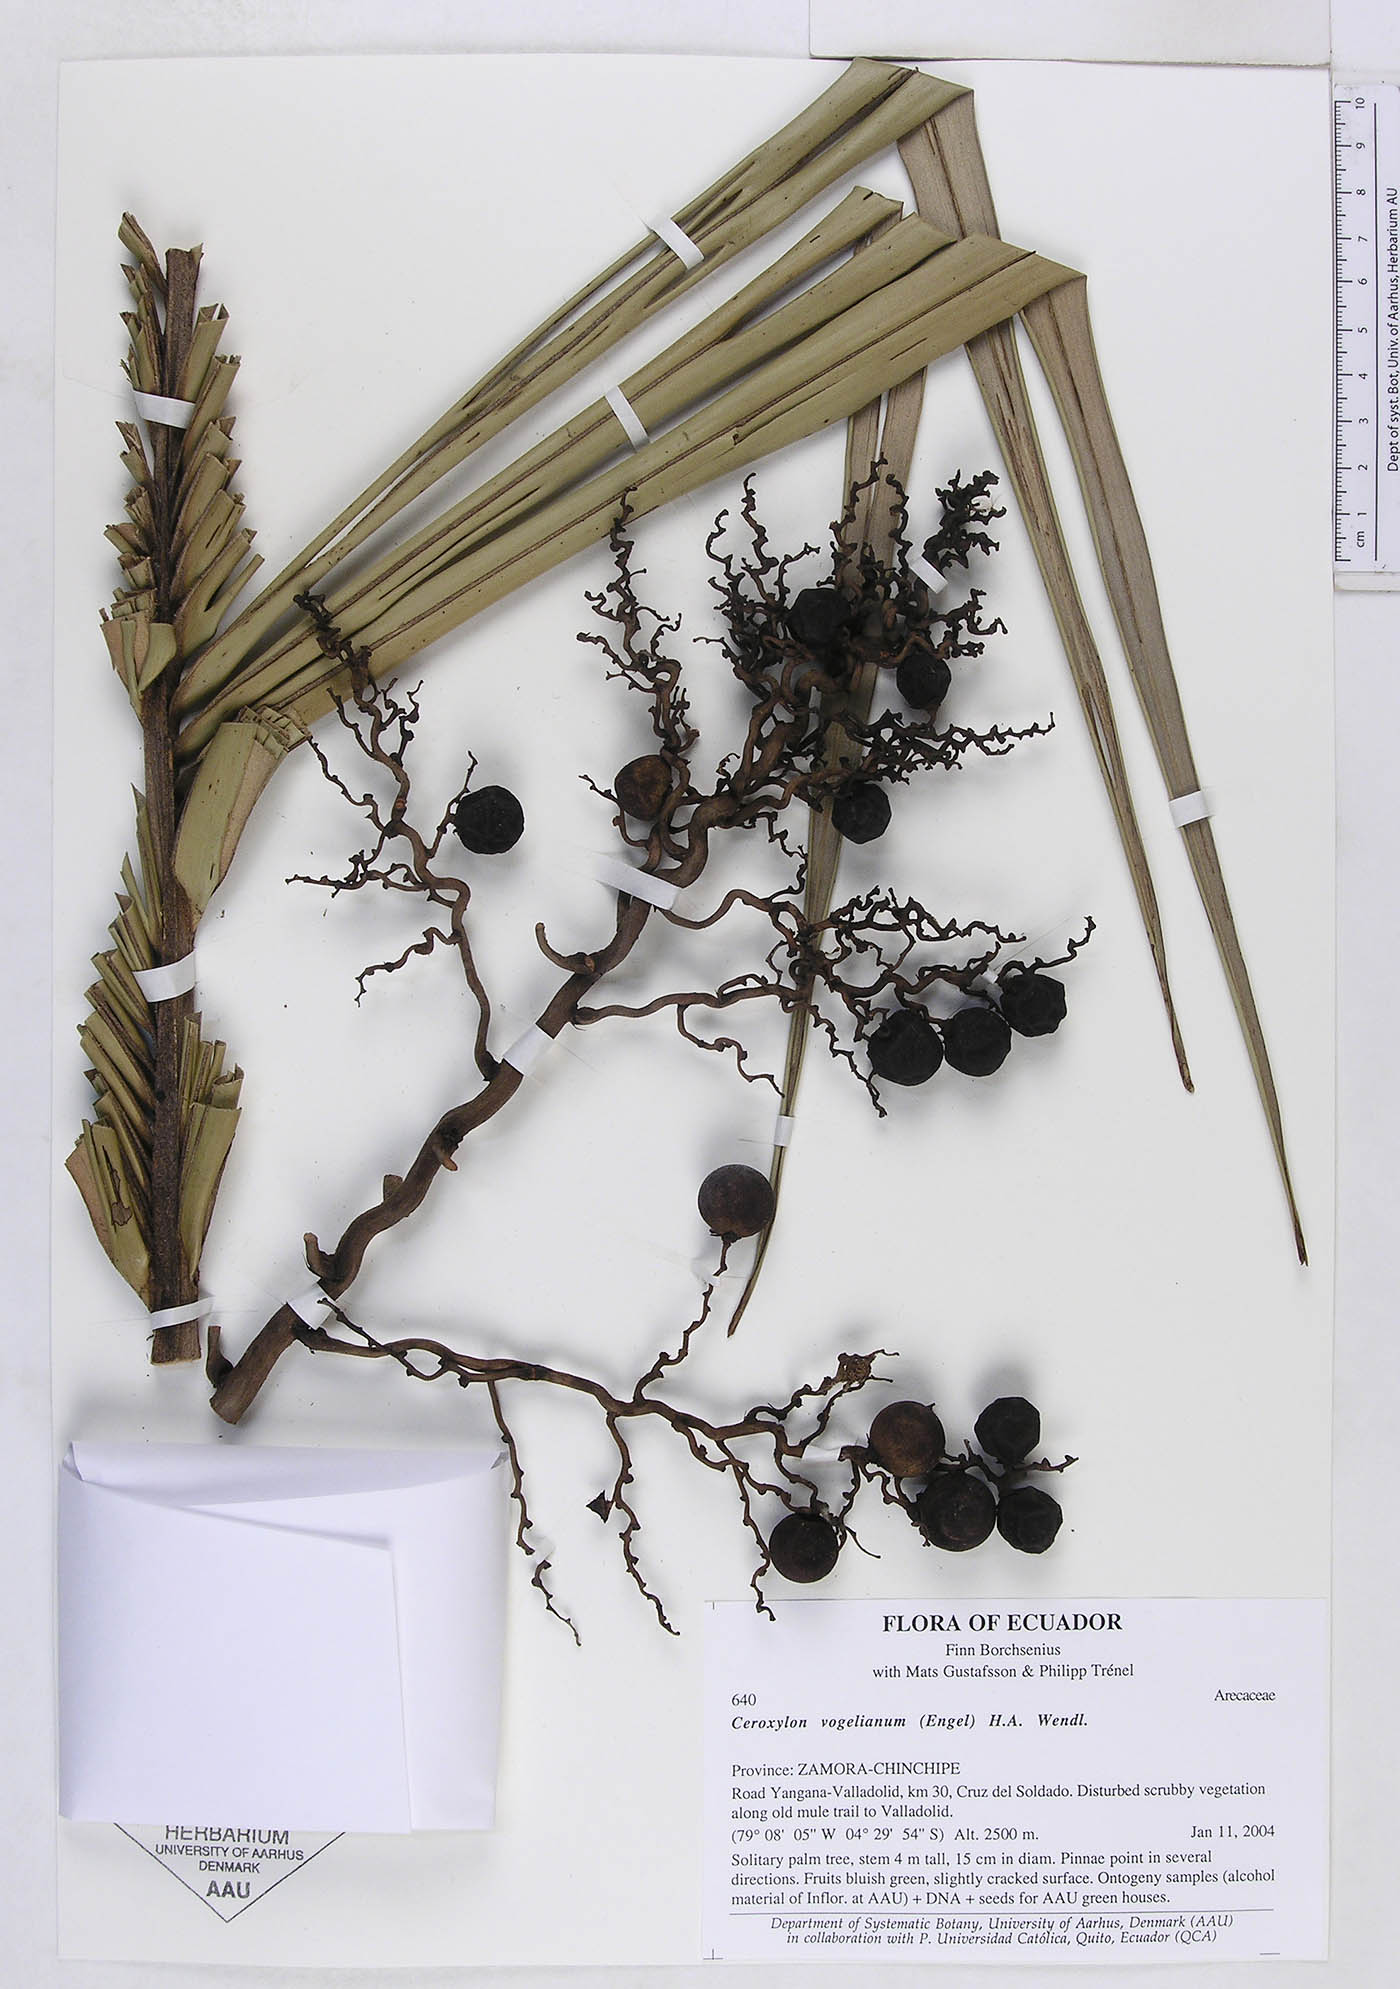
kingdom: Plantae
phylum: Tracheophyta
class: Liliopsida
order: Arecales
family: Arecaceae
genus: Ceroxylon
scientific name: Ceroxylon vogelianum
